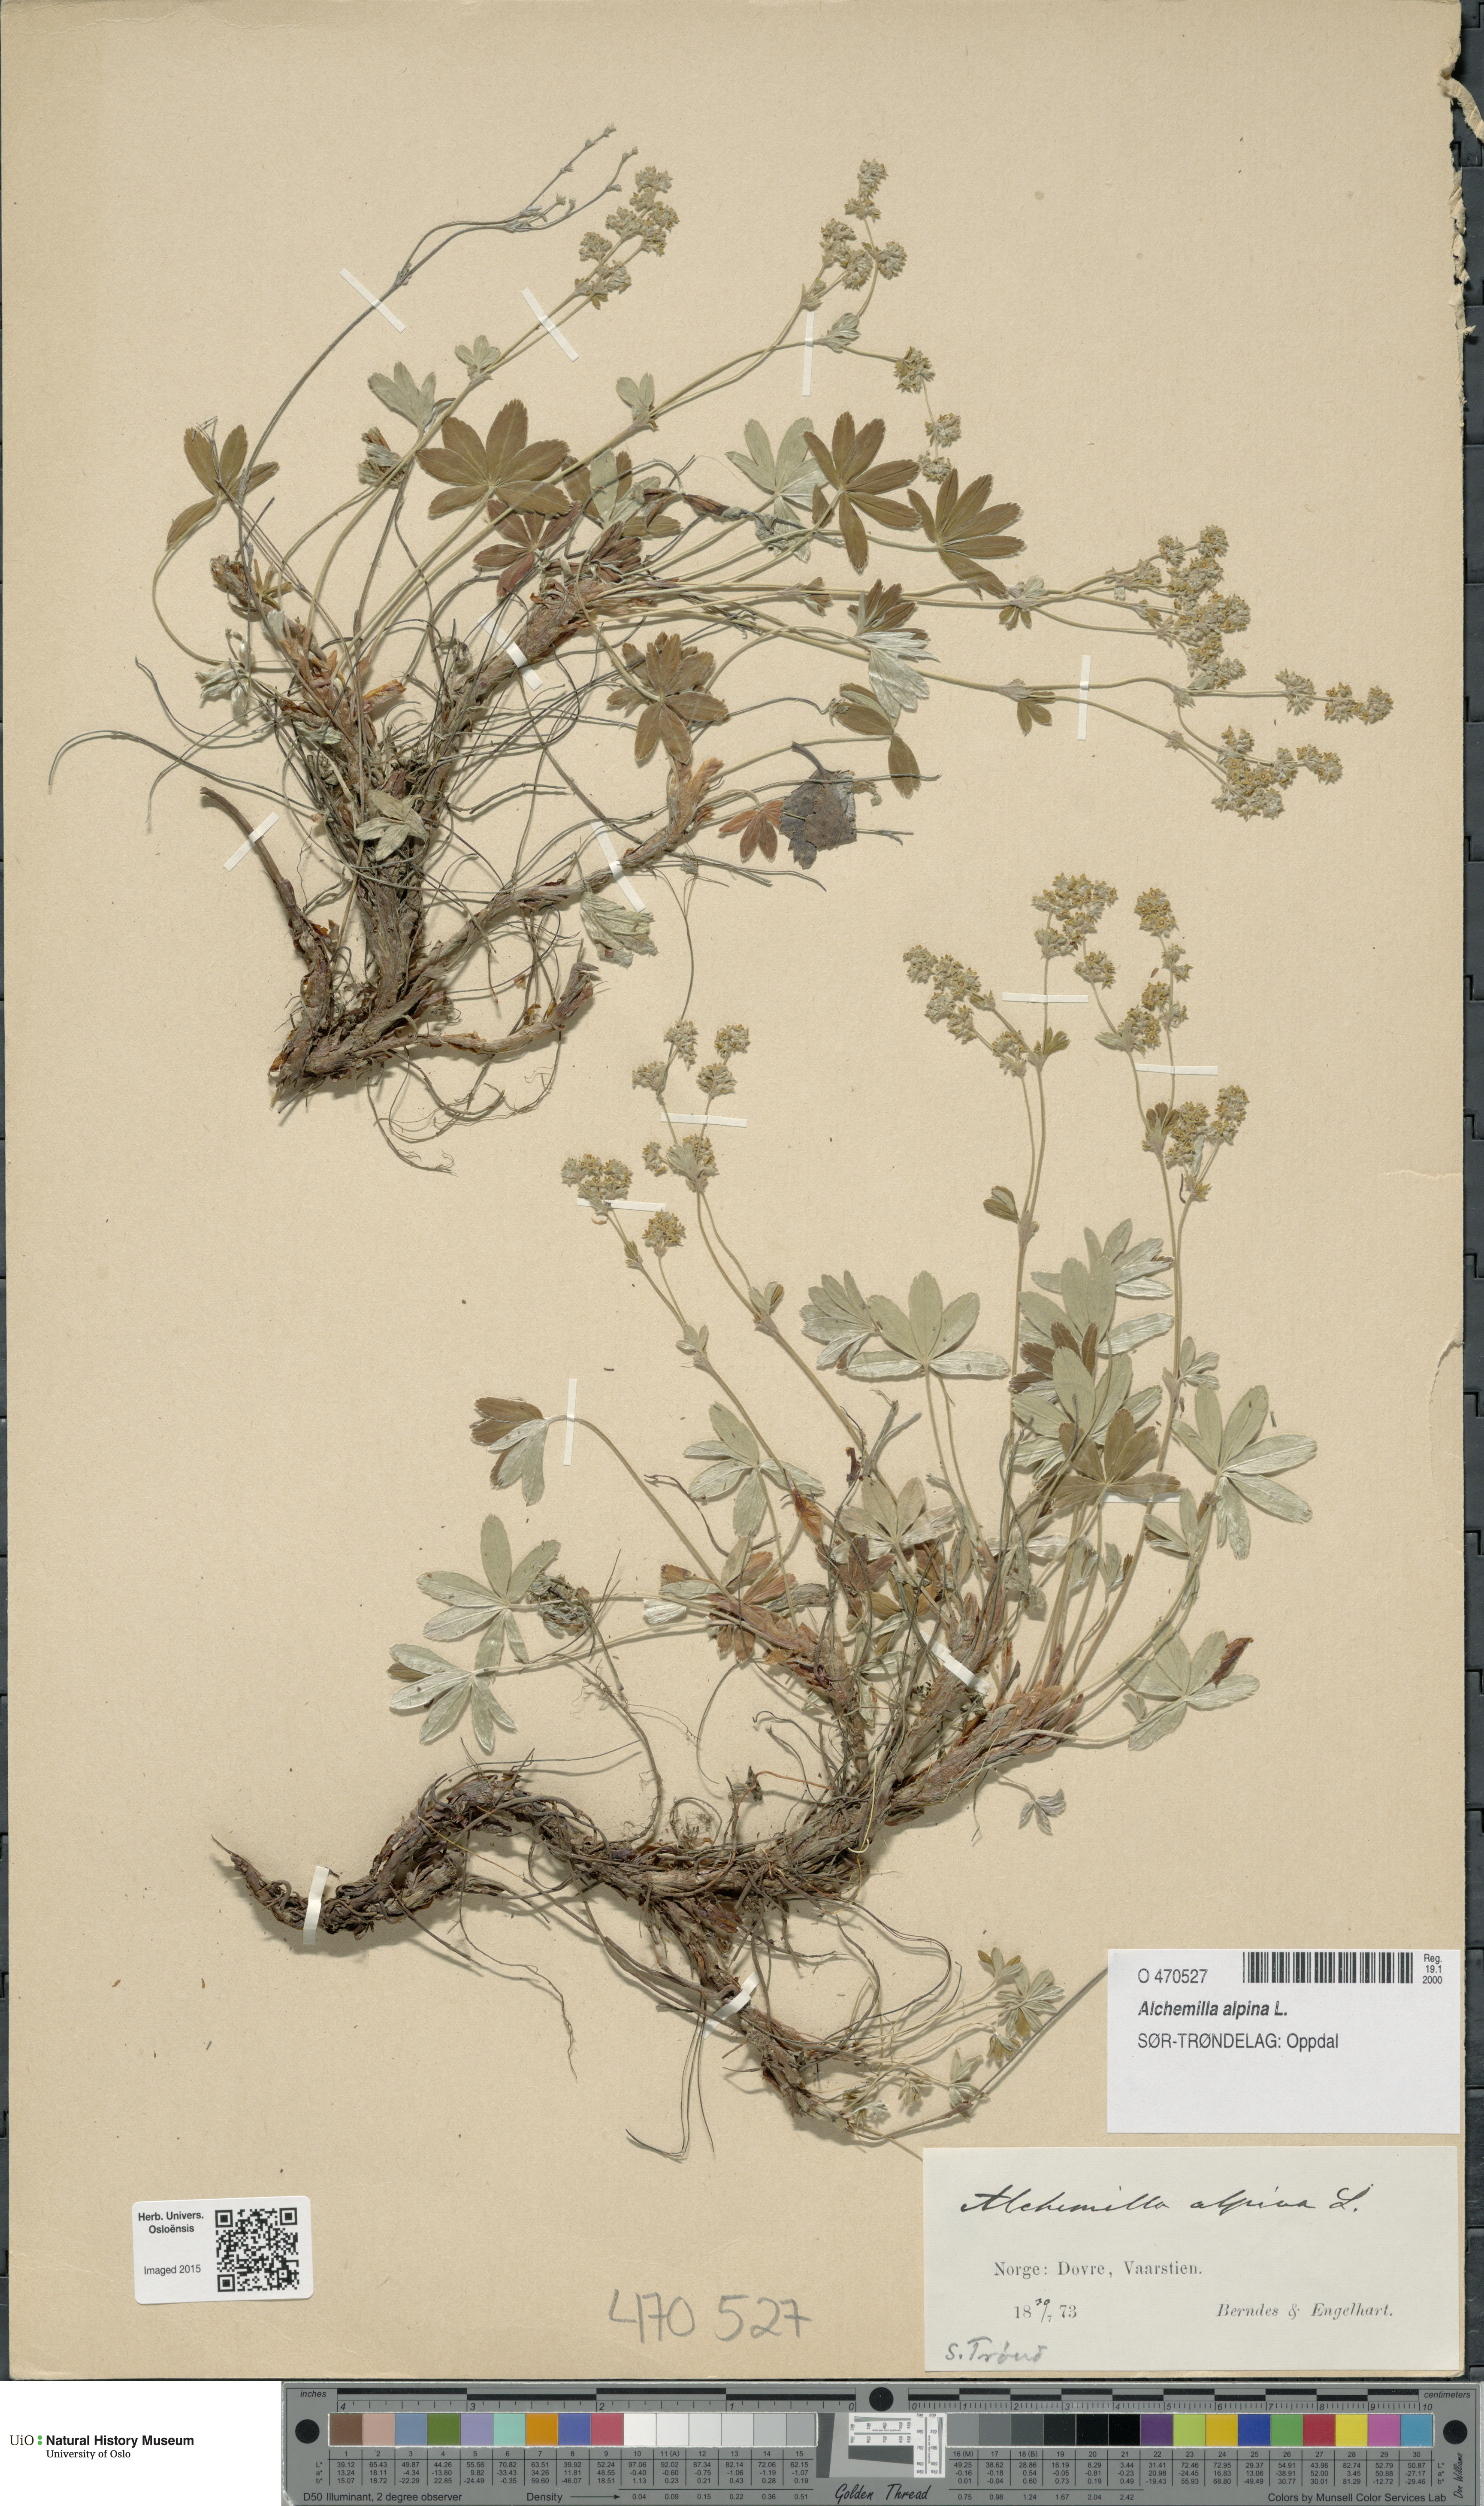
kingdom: Plantae
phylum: Tracheophyta
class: Magnoliopsida
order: Rosales
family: Rosaceae
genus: Alchemilla
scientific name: Alchemilla alpina
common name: Alpine lady's-mantle
